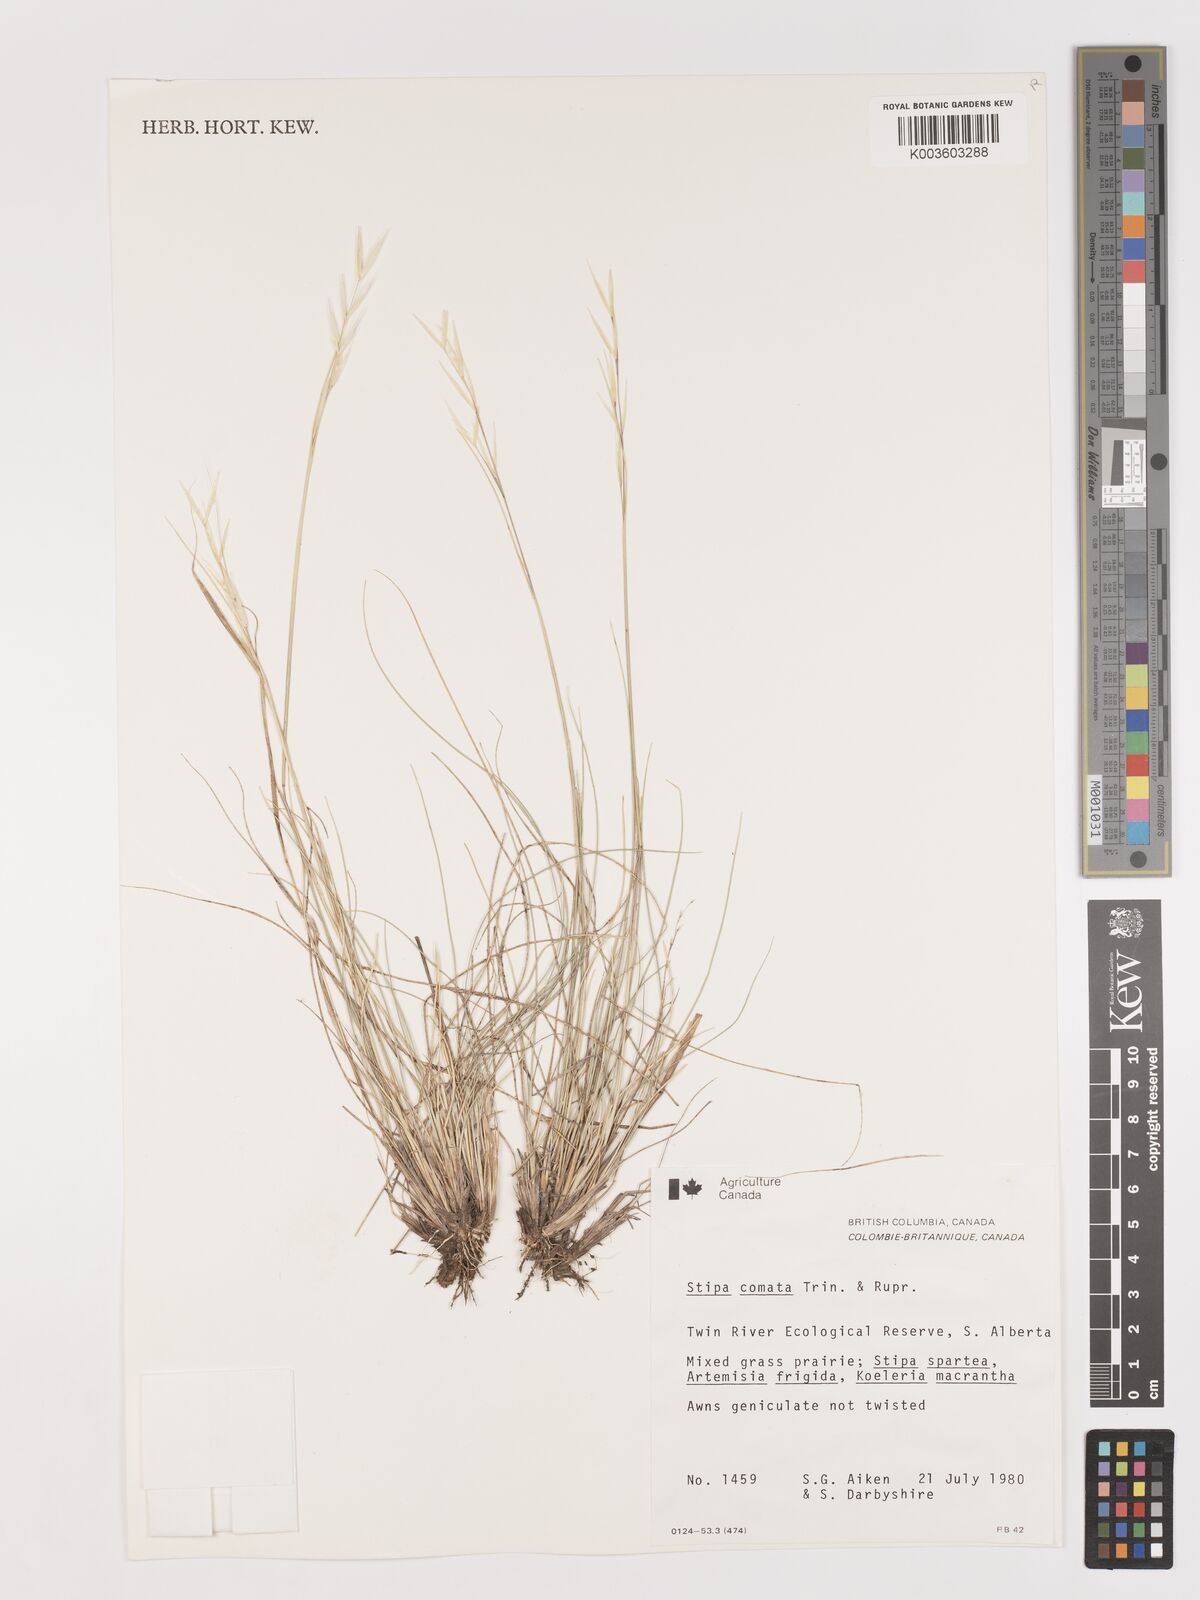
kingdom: Plantae
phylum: Tracheophyta
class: Liliopsida
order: Poales
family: Poaceae
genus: Stipa
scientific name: Stipa
